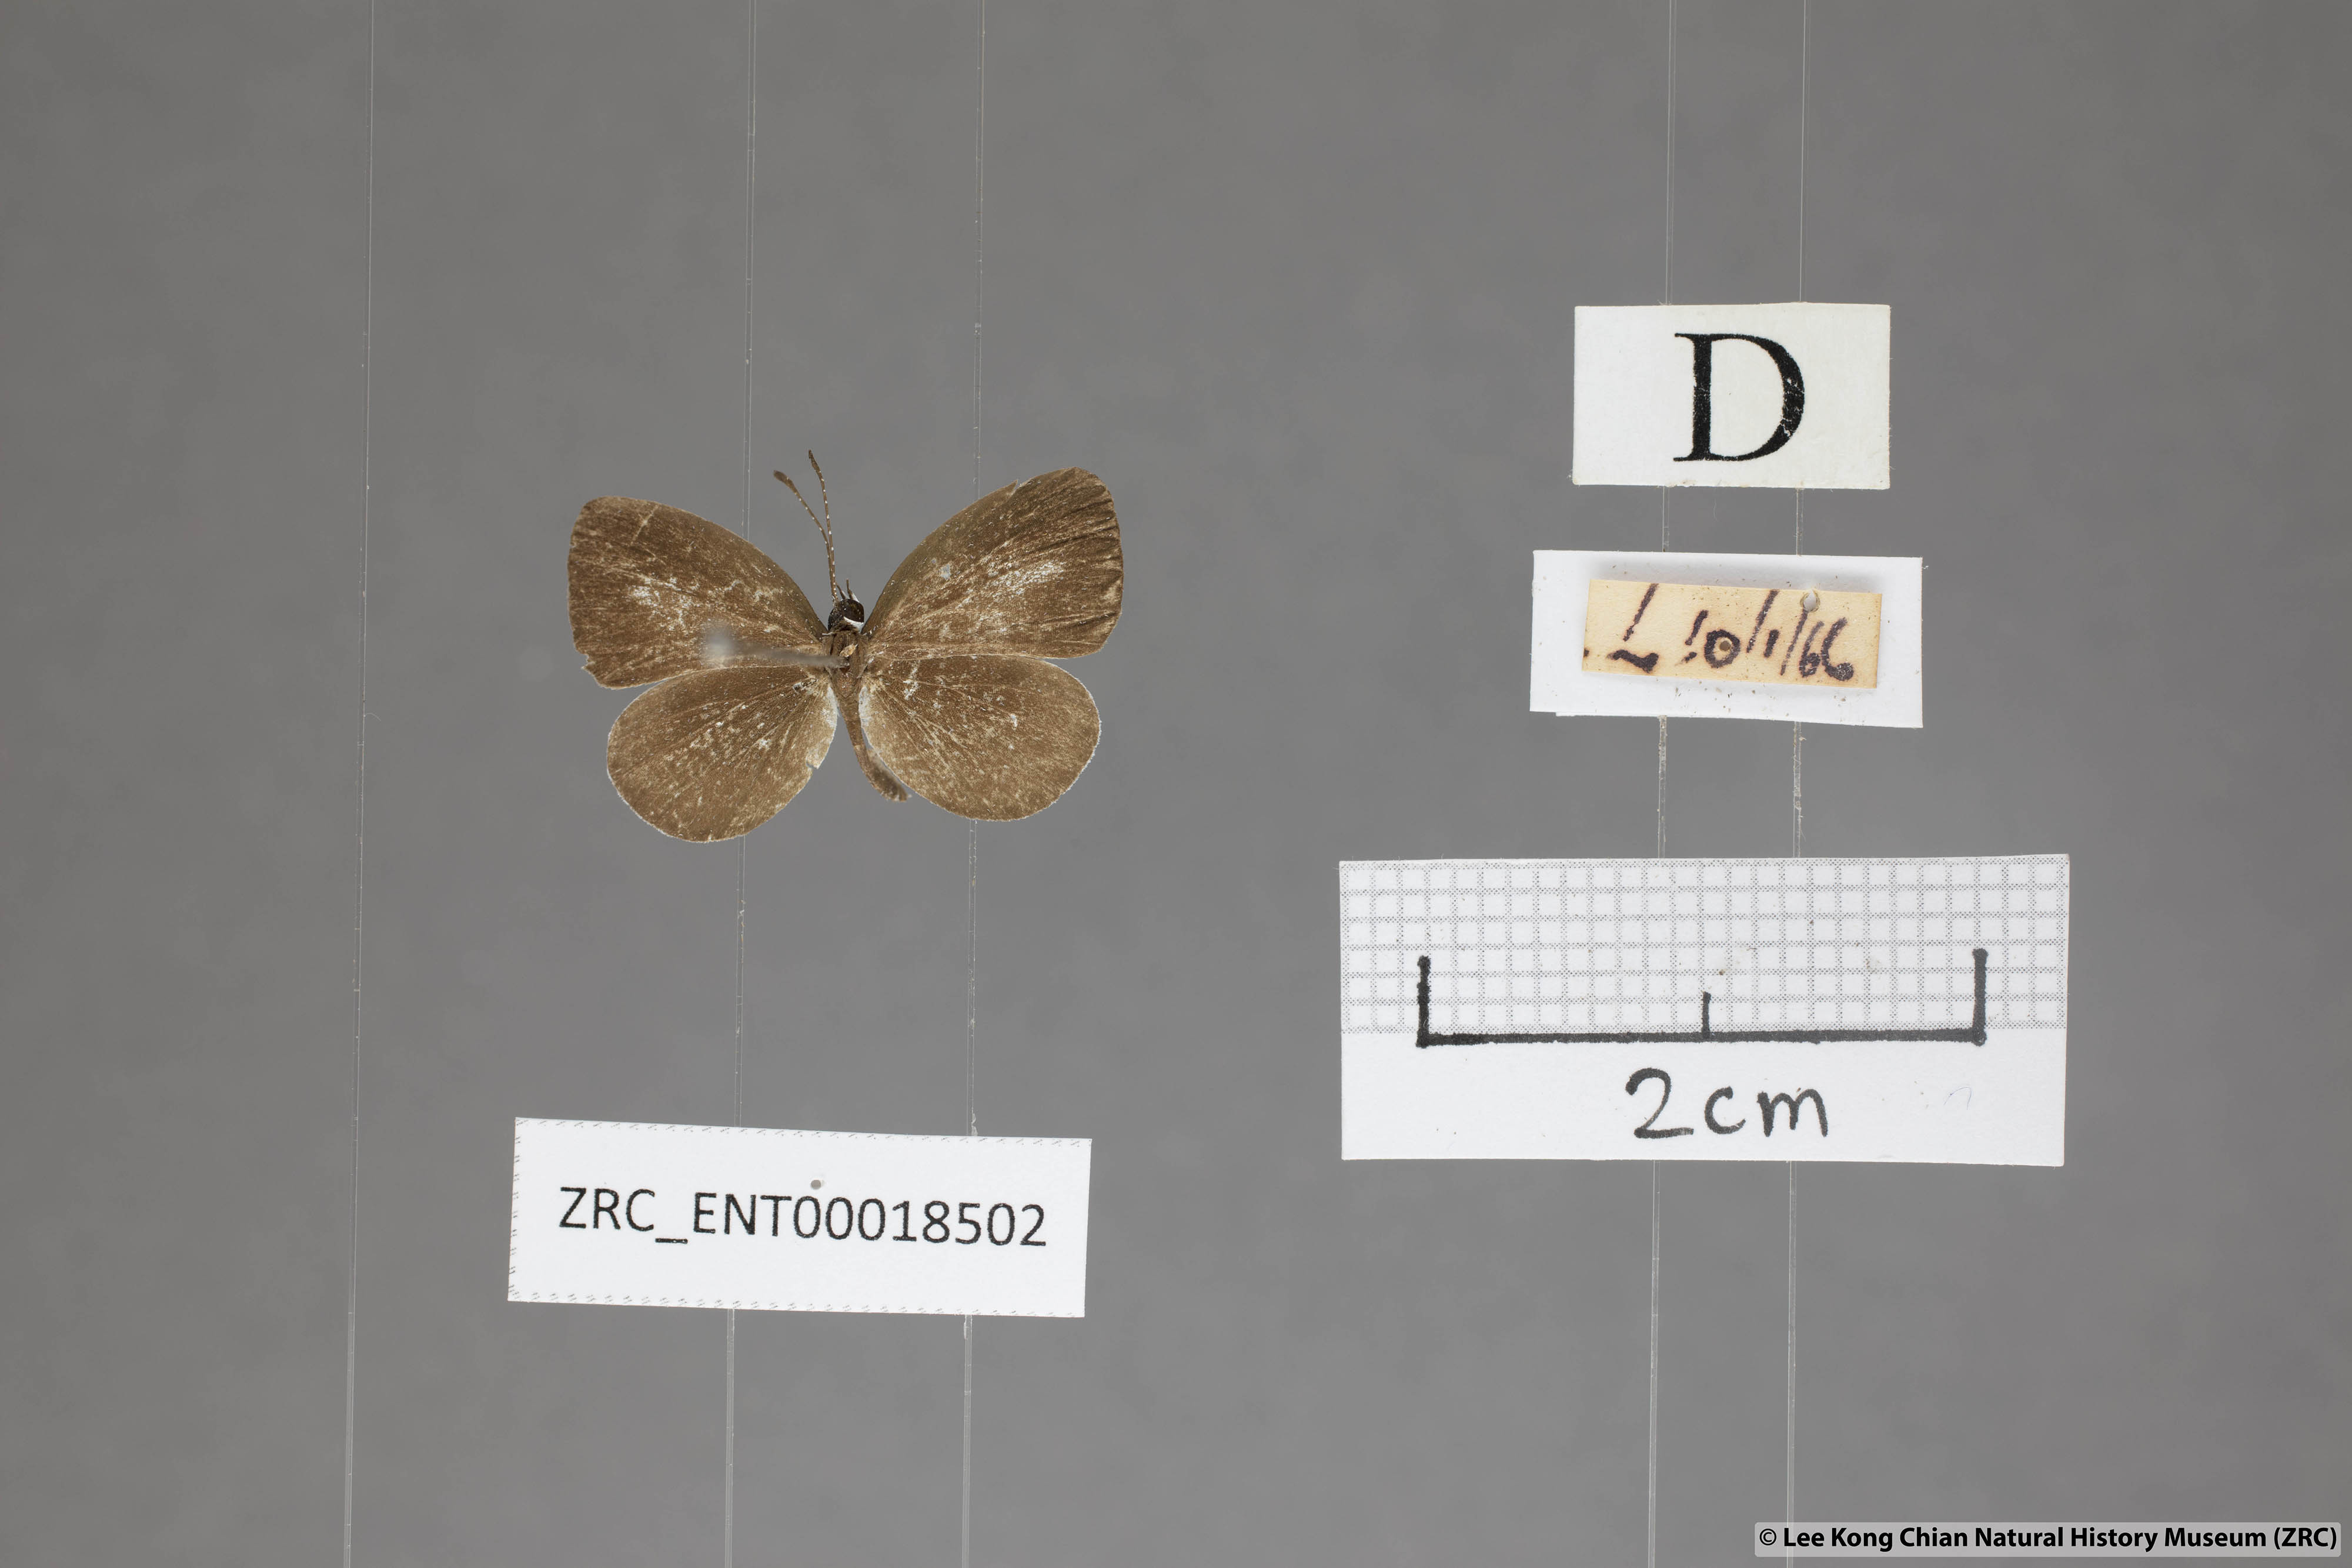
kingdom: Animalia
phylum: Arthropoda
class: Insecta
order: Lepidoptera
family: Lycaenidae
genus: Neopithecops
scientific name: Neopithecops zalmora
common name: Quaker
